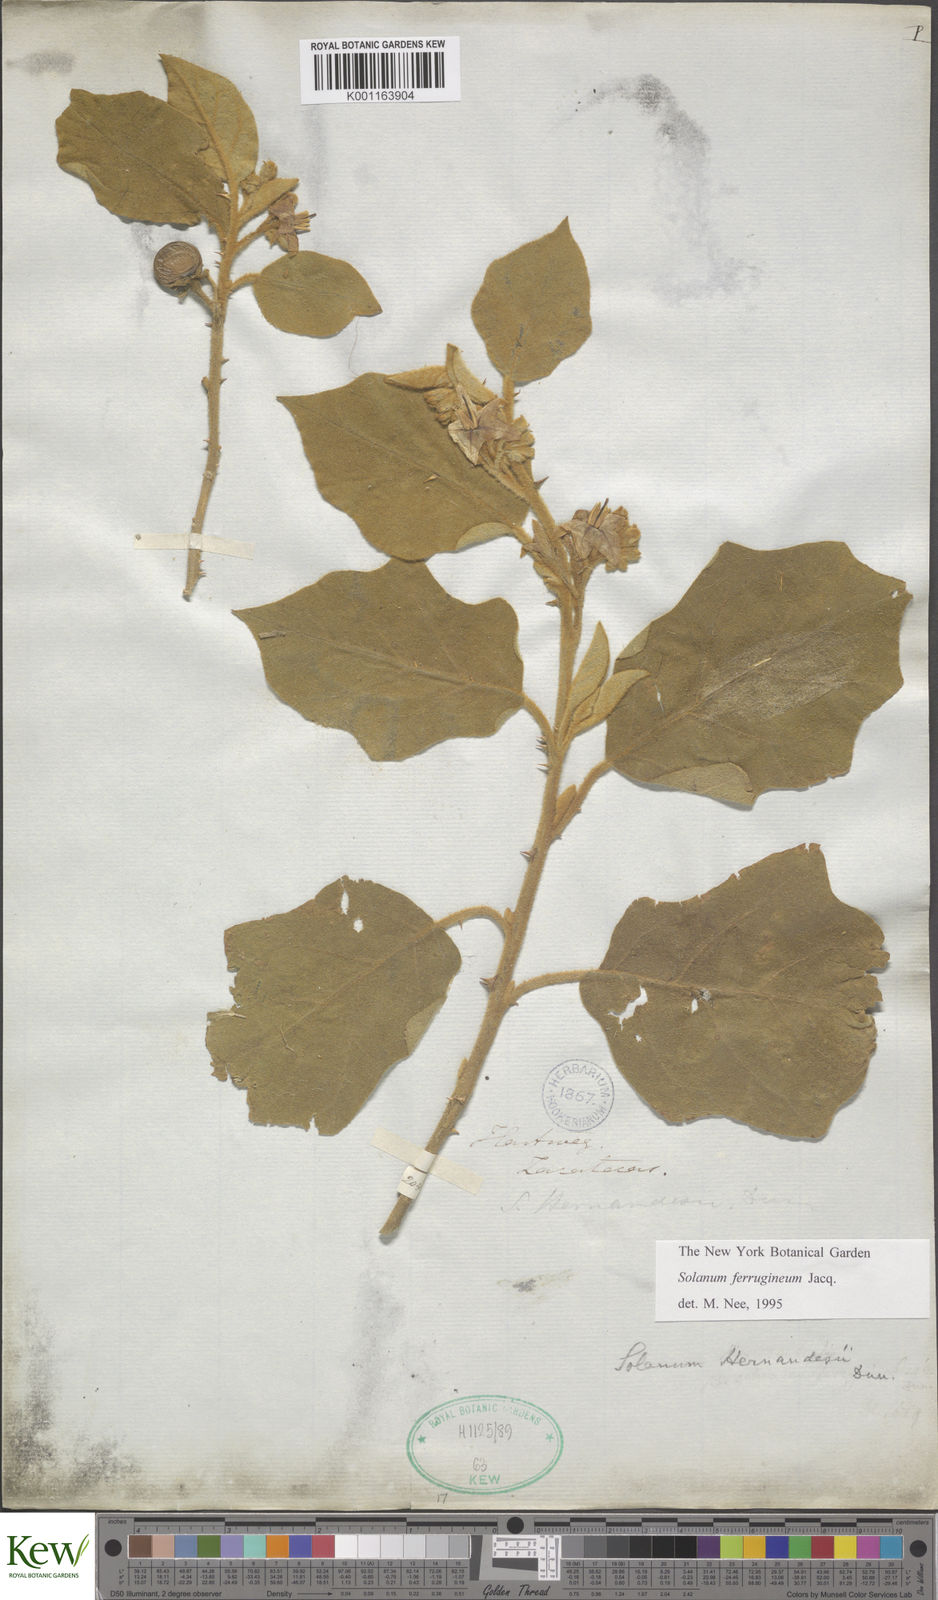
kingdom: Plantae
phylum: Tracheophyta
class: Magnoliopsida
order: Solanales
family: Solanaceae
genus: Solanum
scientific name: Solanum ferrugineum
